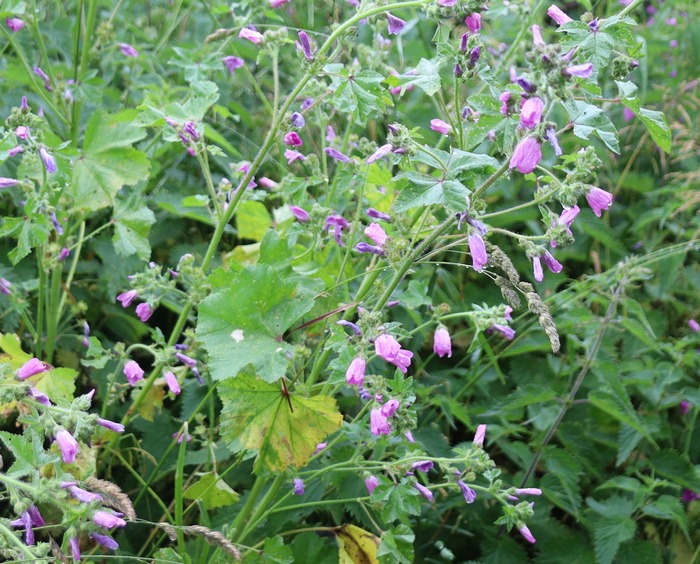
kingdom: Plantae
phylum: Tracheophyta
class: Magnoliopsida
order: Malvales
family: Malvaceae
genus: Malva
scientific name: Malva sylvestris
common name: Almindelig katost
